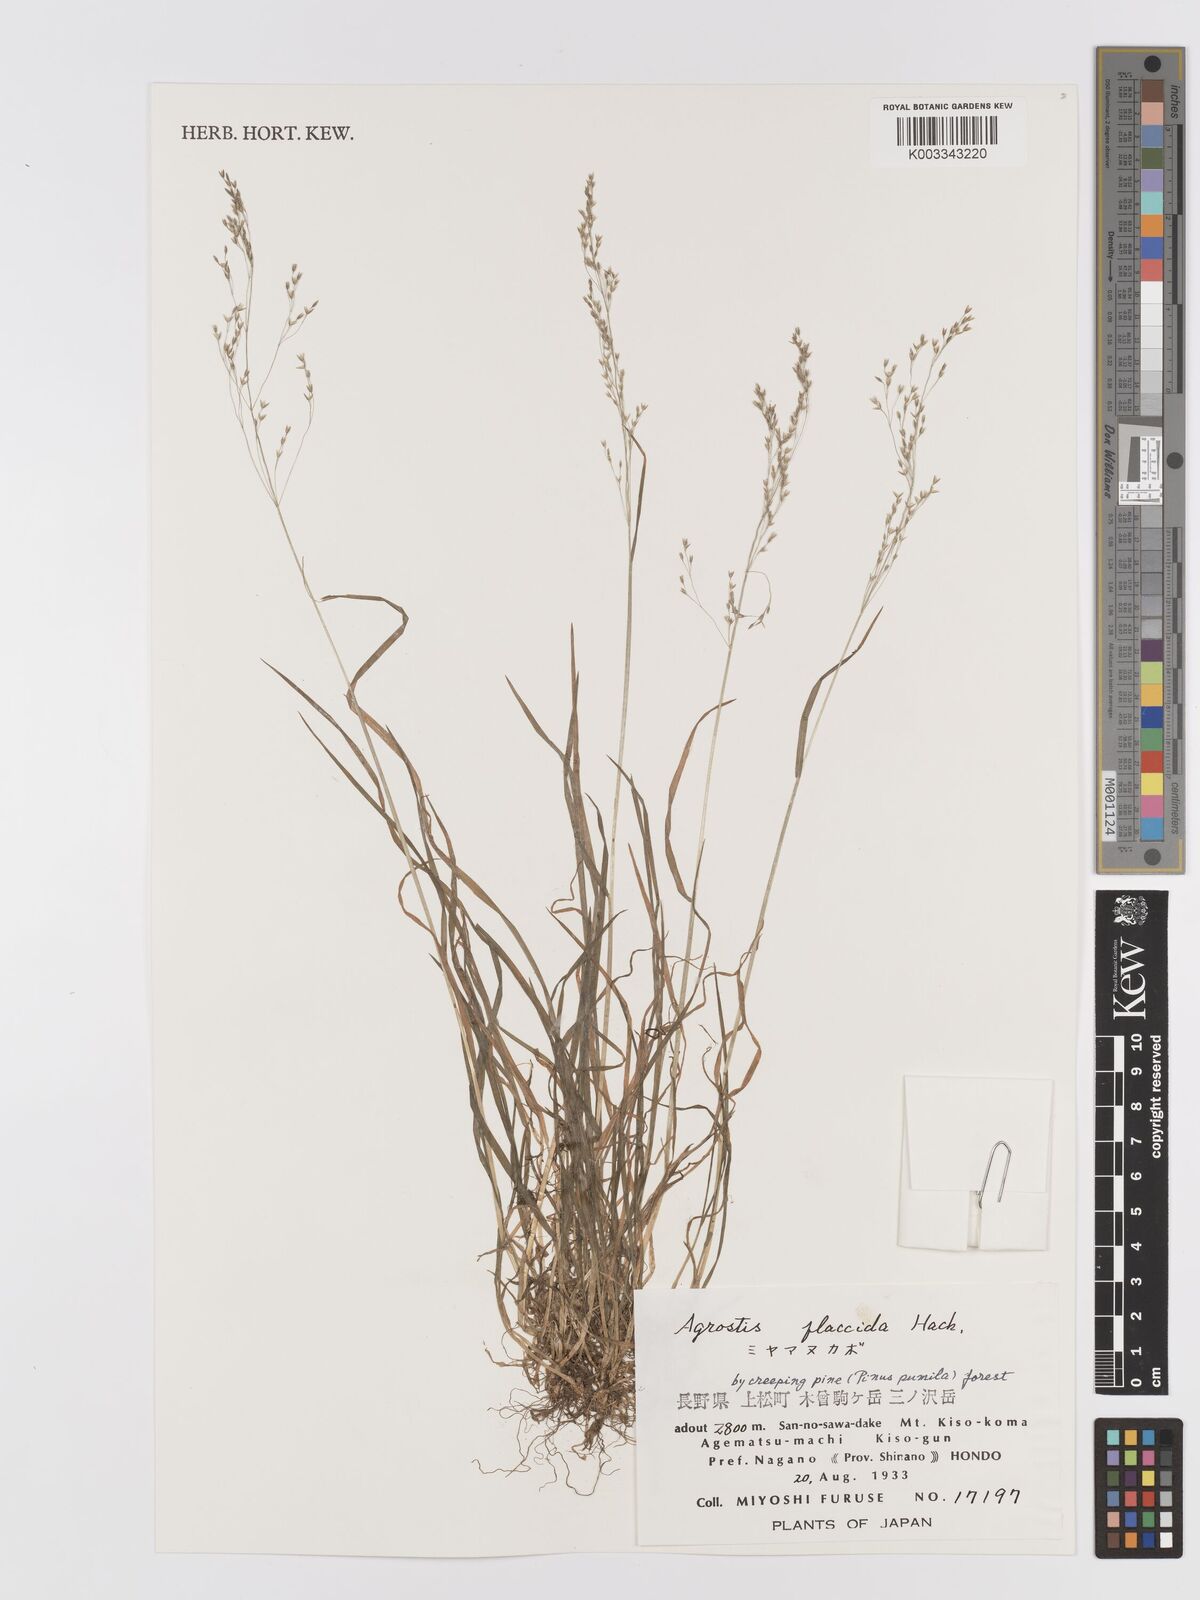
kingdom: Plantae
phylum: Tracheophyta
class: Liliopsida
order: Poales
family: Poaceae
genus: Agrostis
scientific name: Agrostis flaccida
